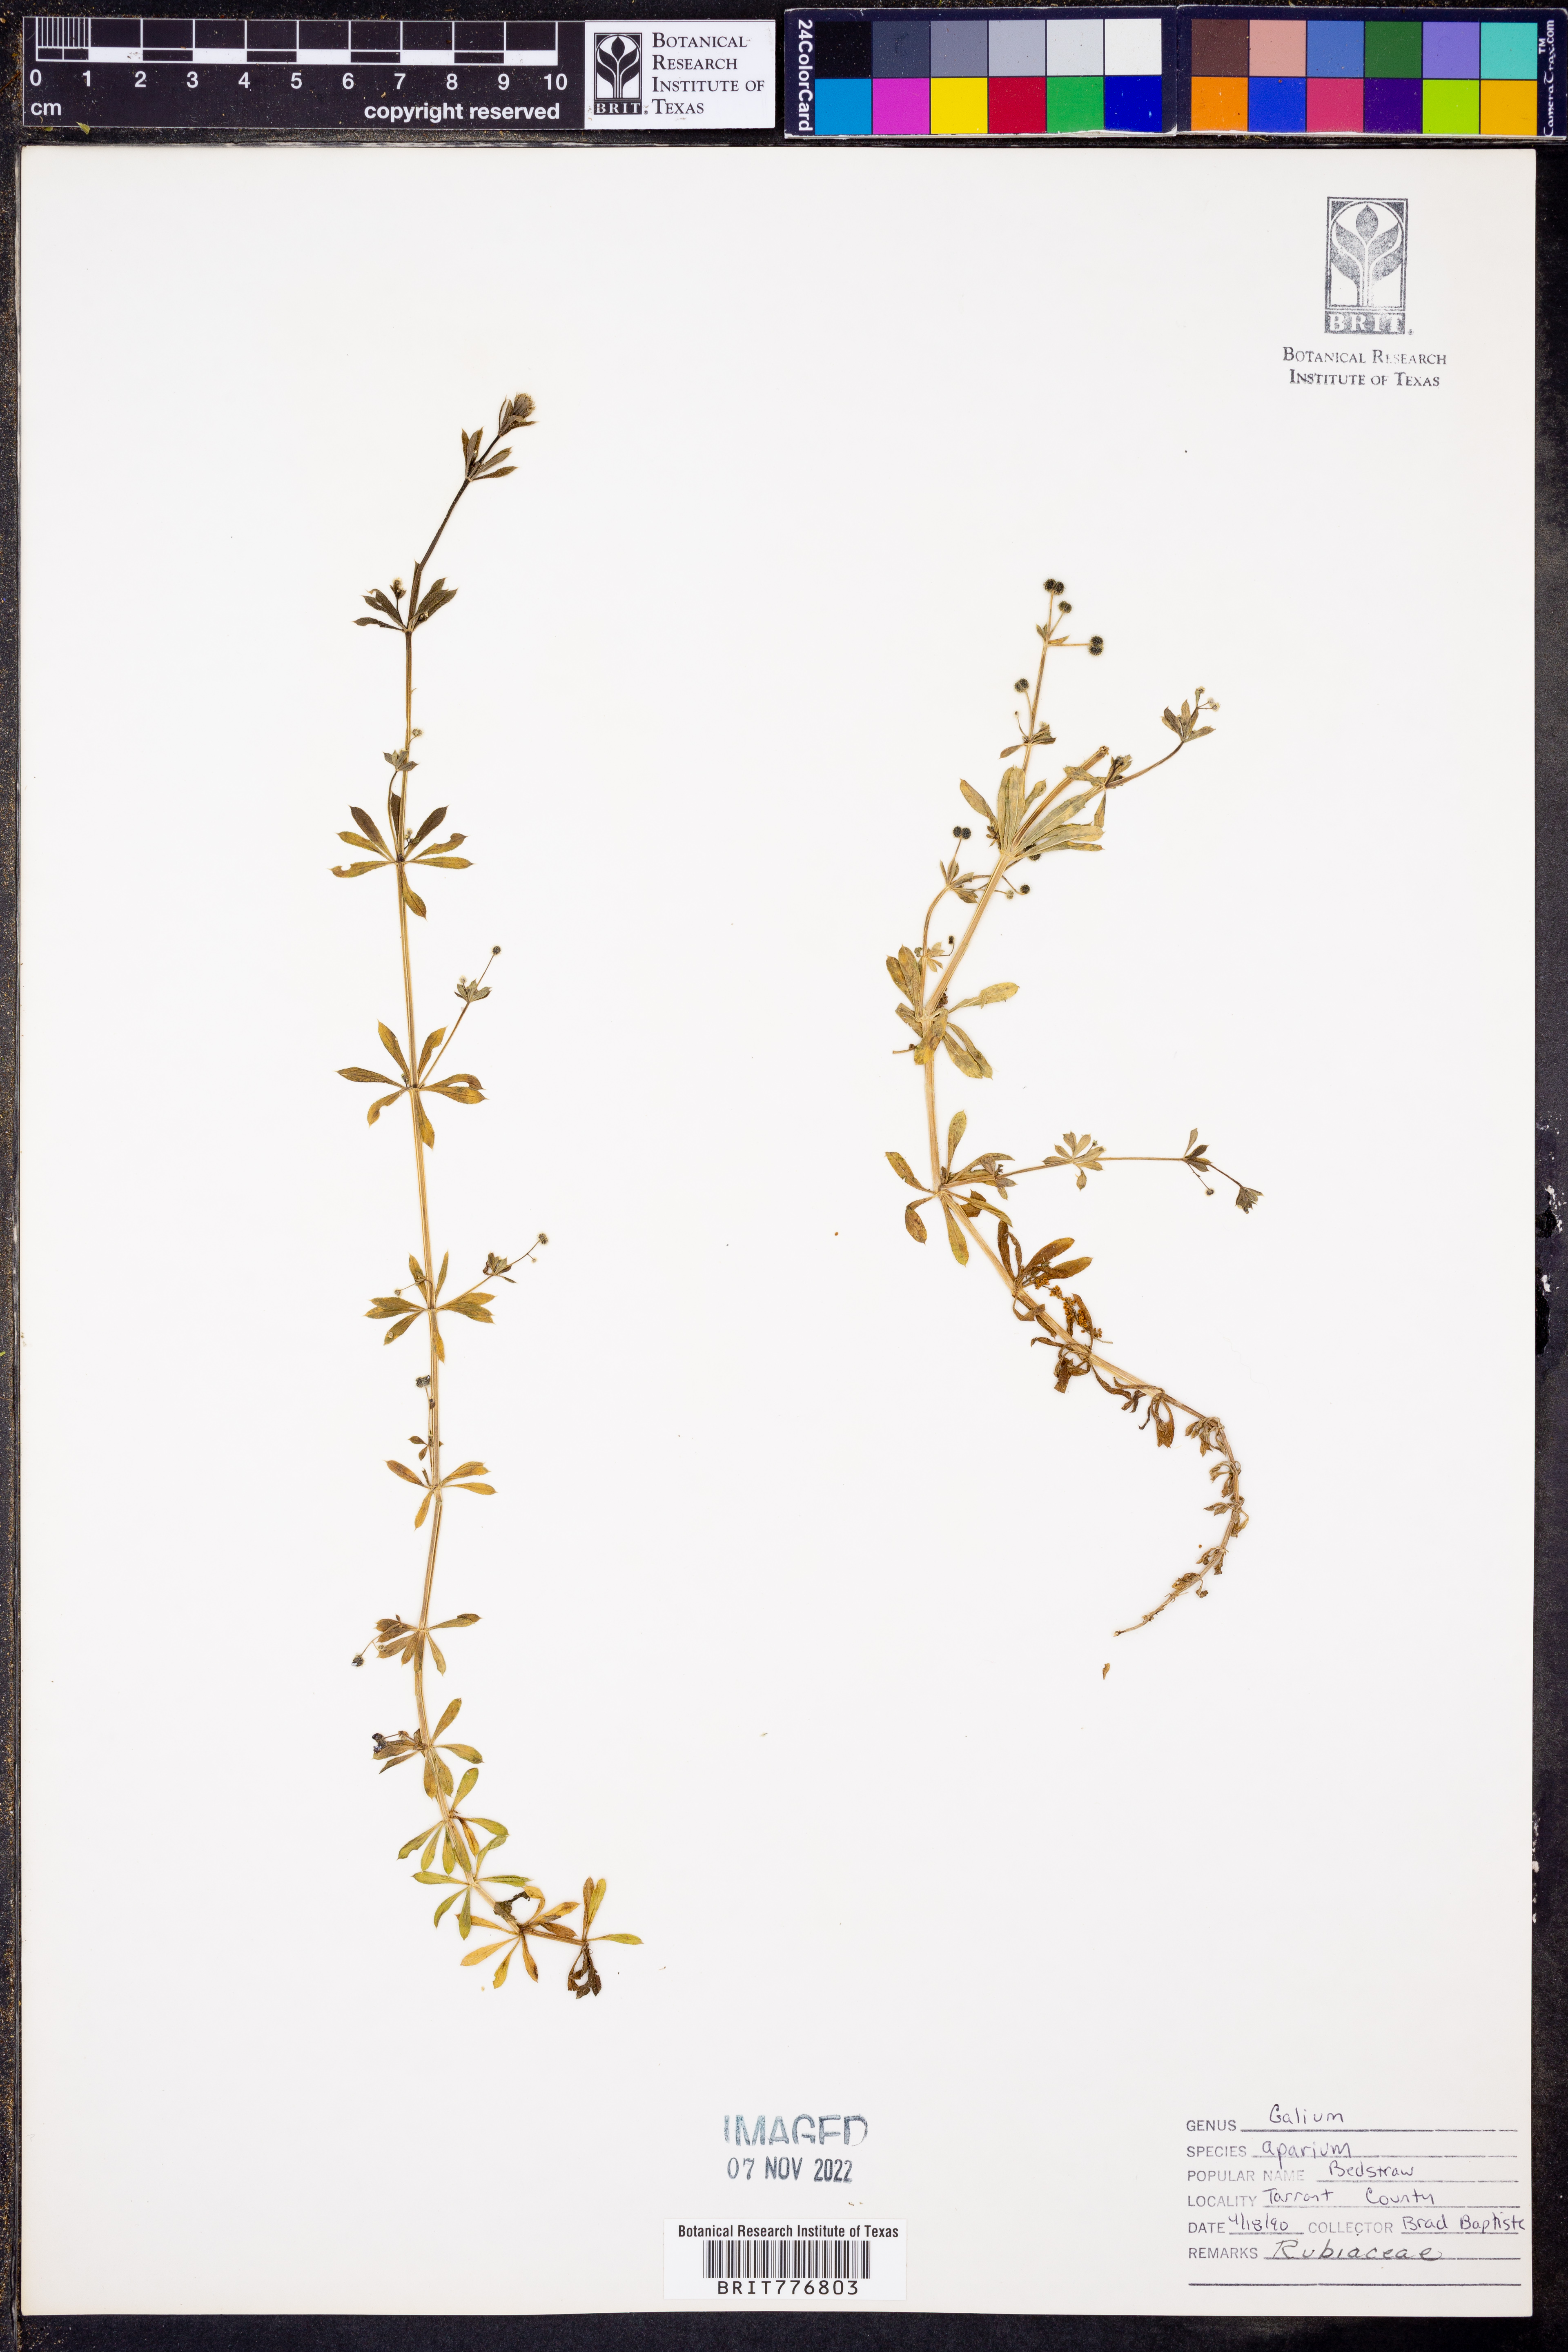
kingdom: Plantae
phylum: Tracheophyta
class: Magnoliopsida
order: Gentianales
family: Rubiaceae
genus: Galium
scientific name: Galium aparine
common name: Cleavers
